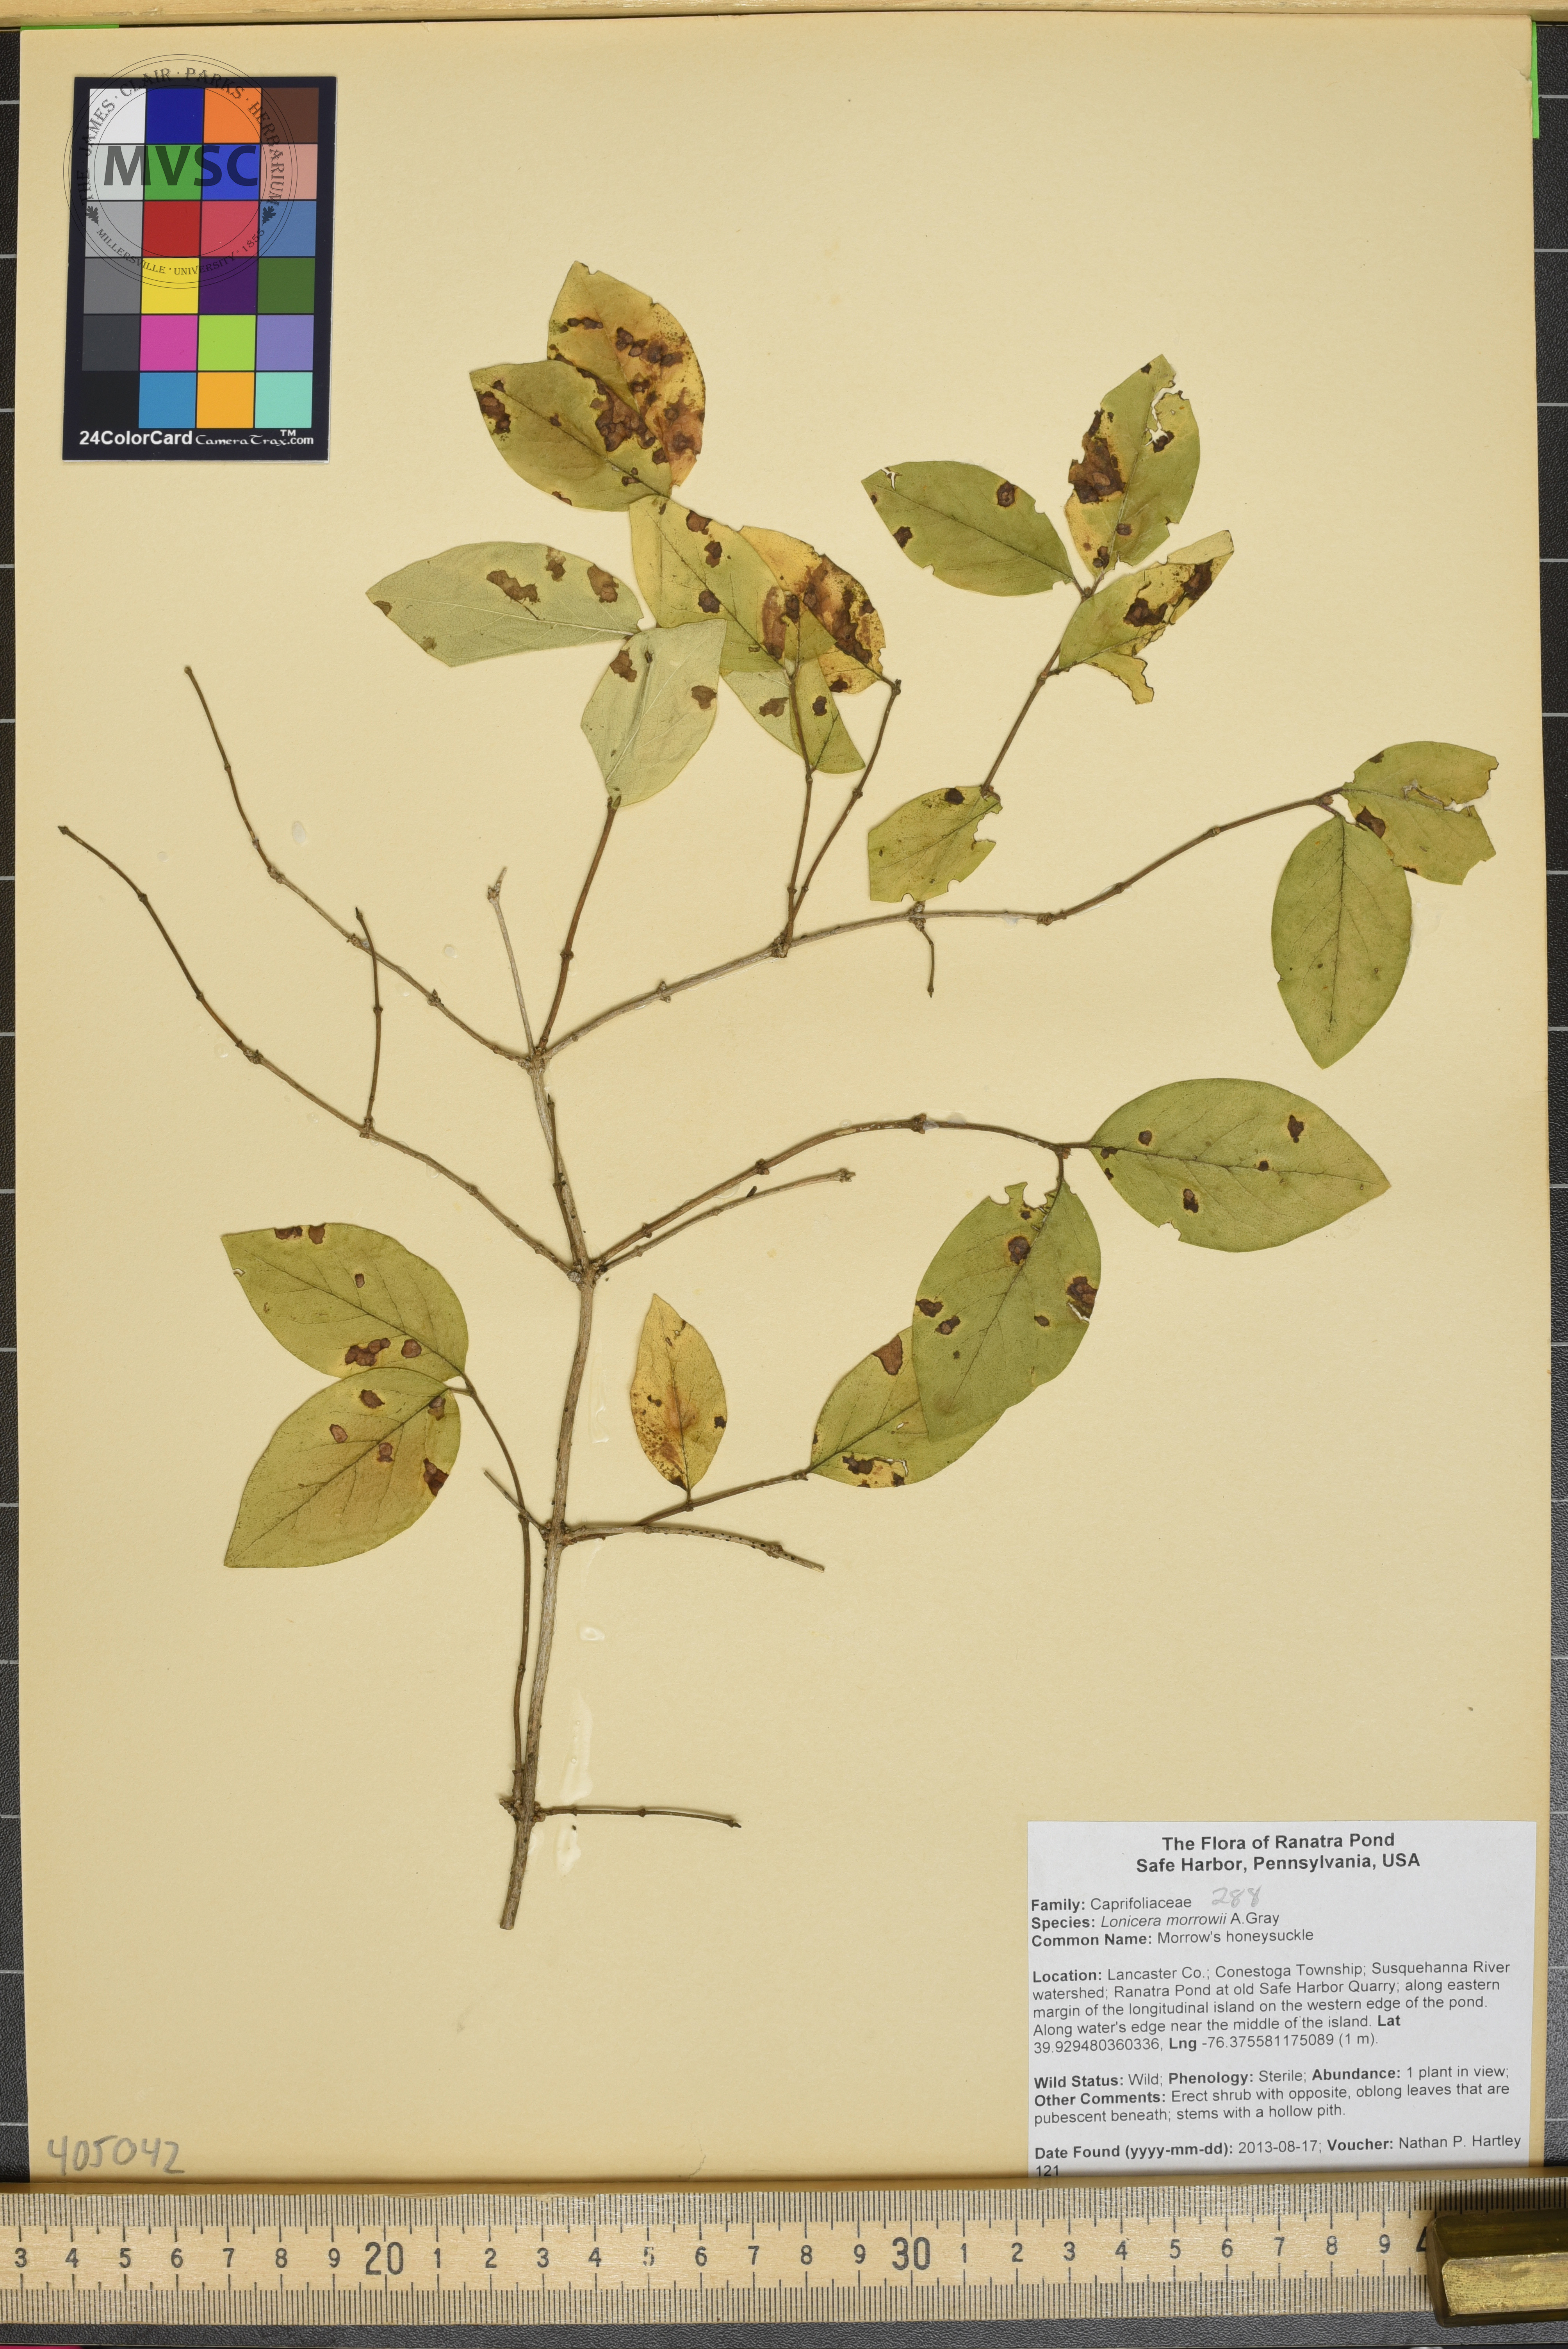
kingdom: Plantae
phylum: Tracheophyta
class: Magnoliopsida
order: Dipsacales
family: Caprifoliaceae
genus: Lonicera
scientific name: Lonicera morrowii
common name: Morrow's honeysuckle
